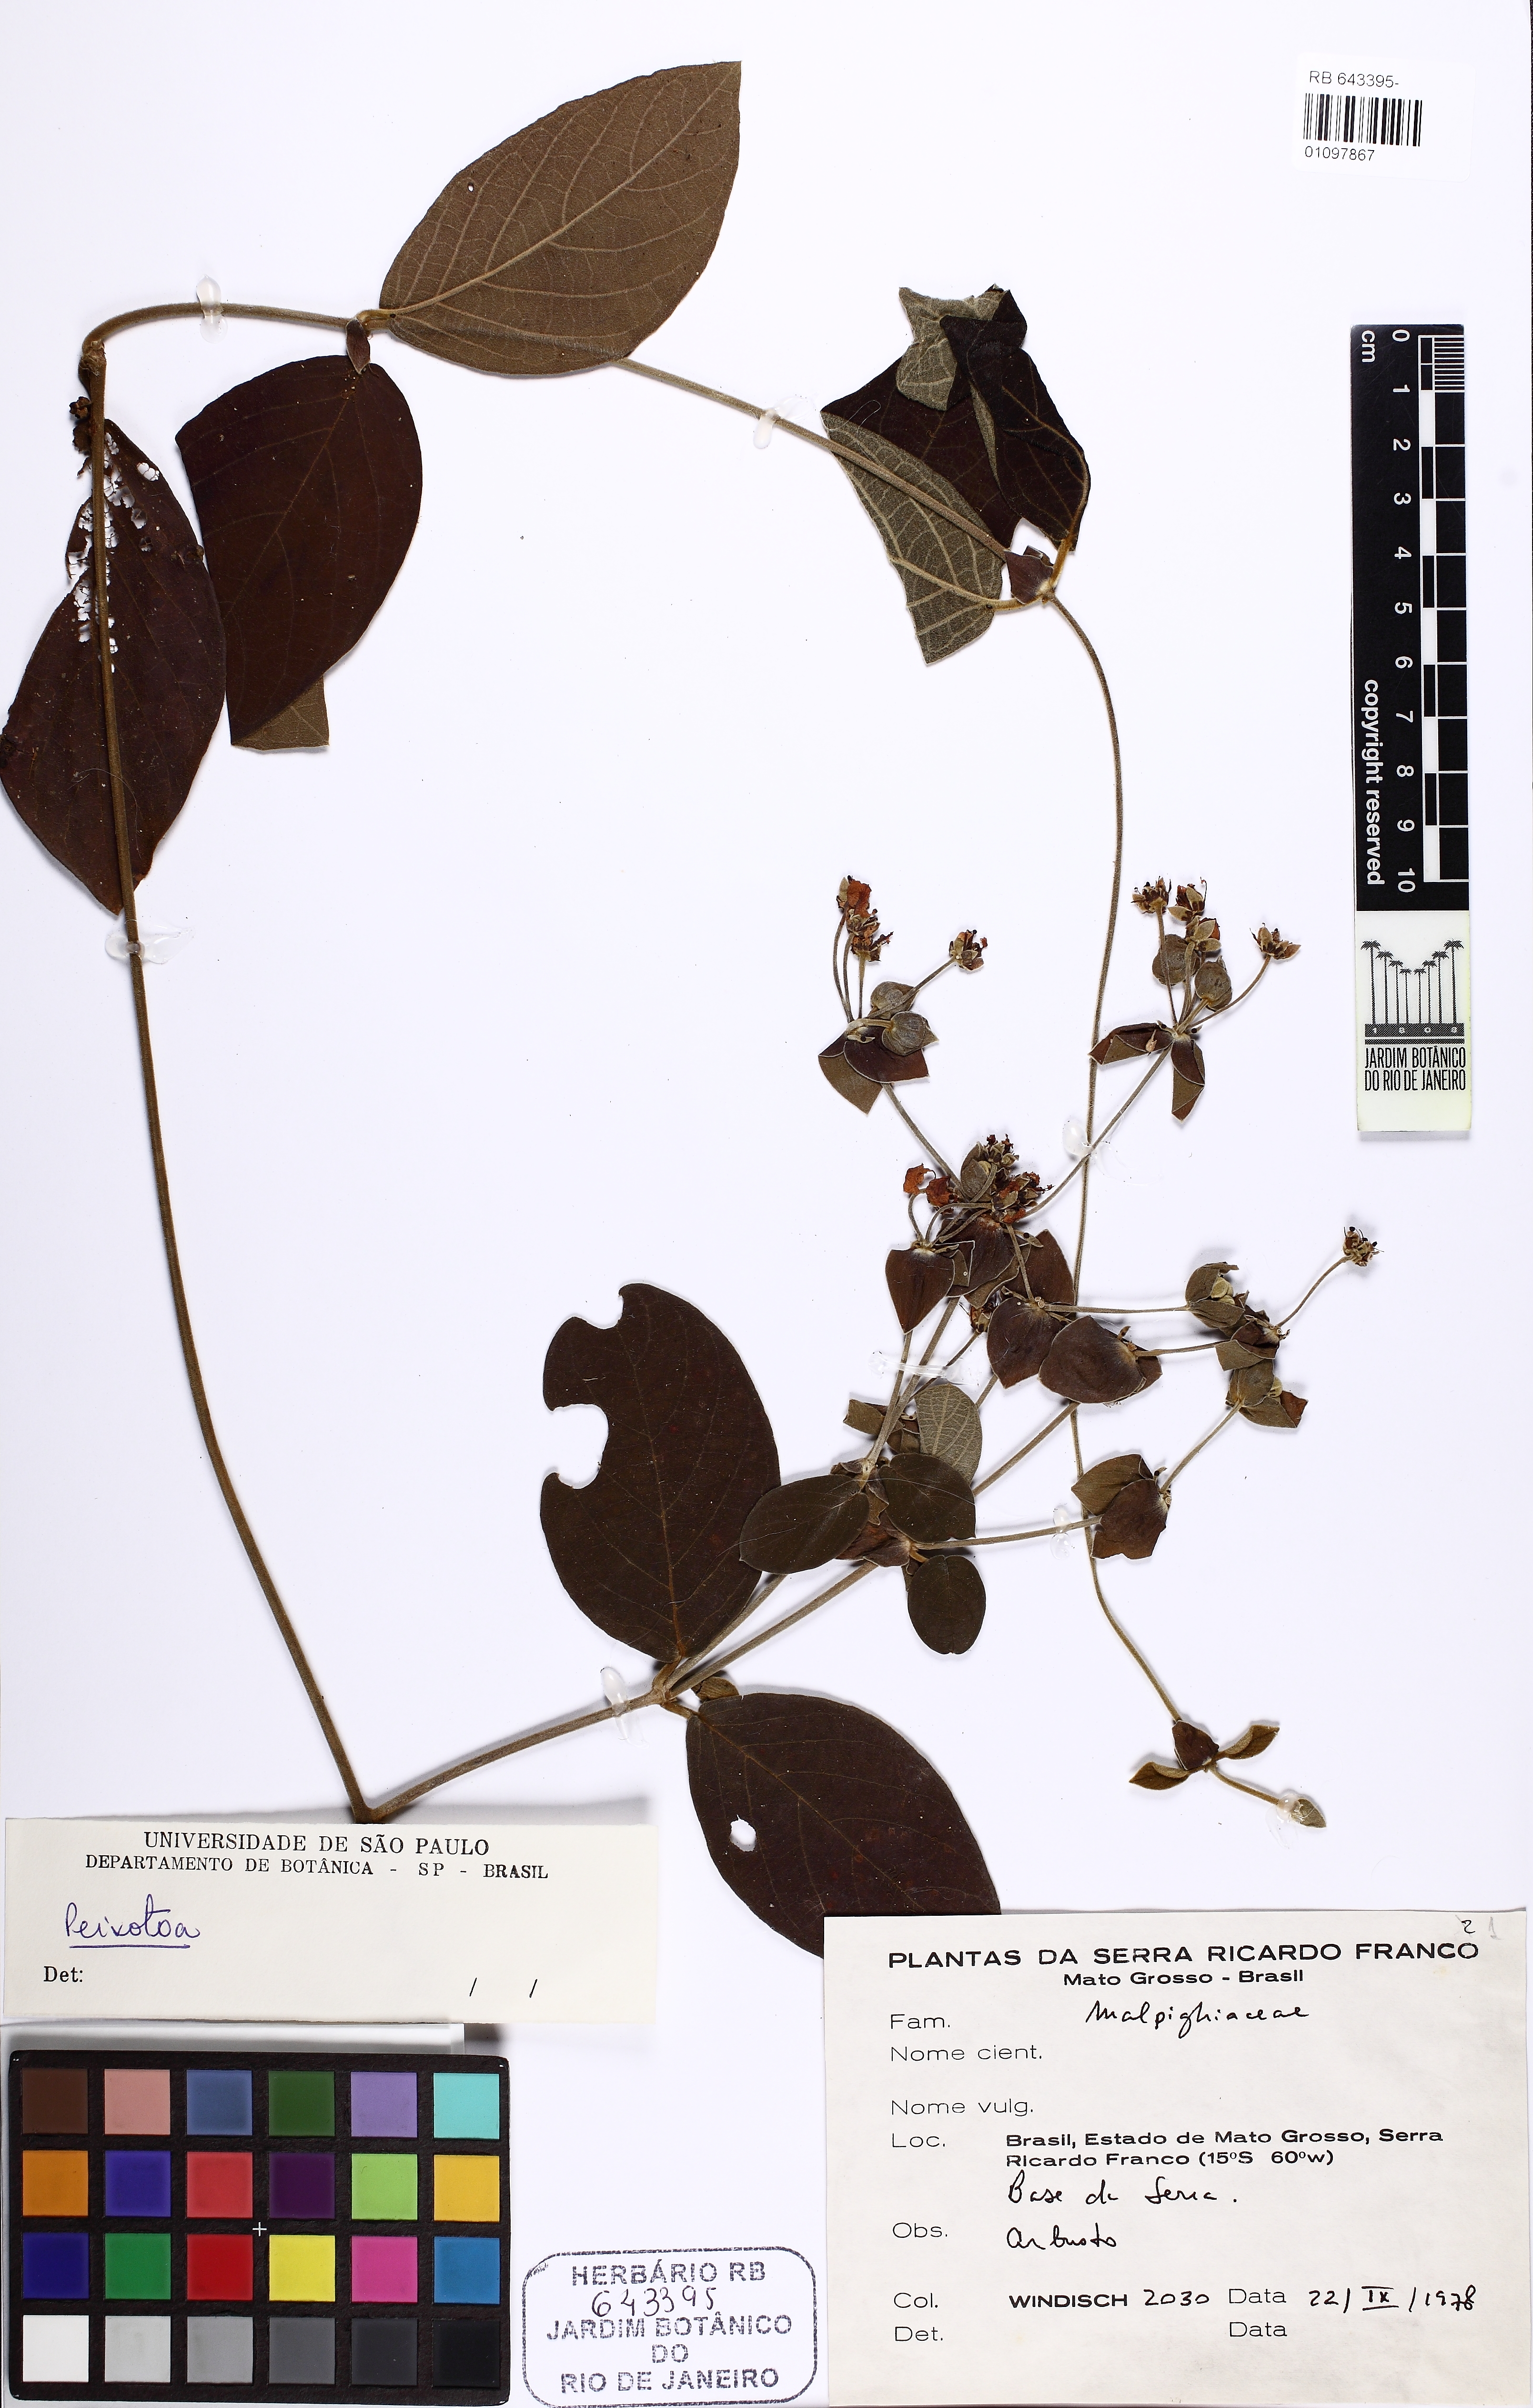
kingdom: Plantae
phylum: Tracheophyta
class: Magnoliopsida
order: Malpighiales
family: Malpighiaceae
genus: Peixotoa
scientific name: Peixotoa
